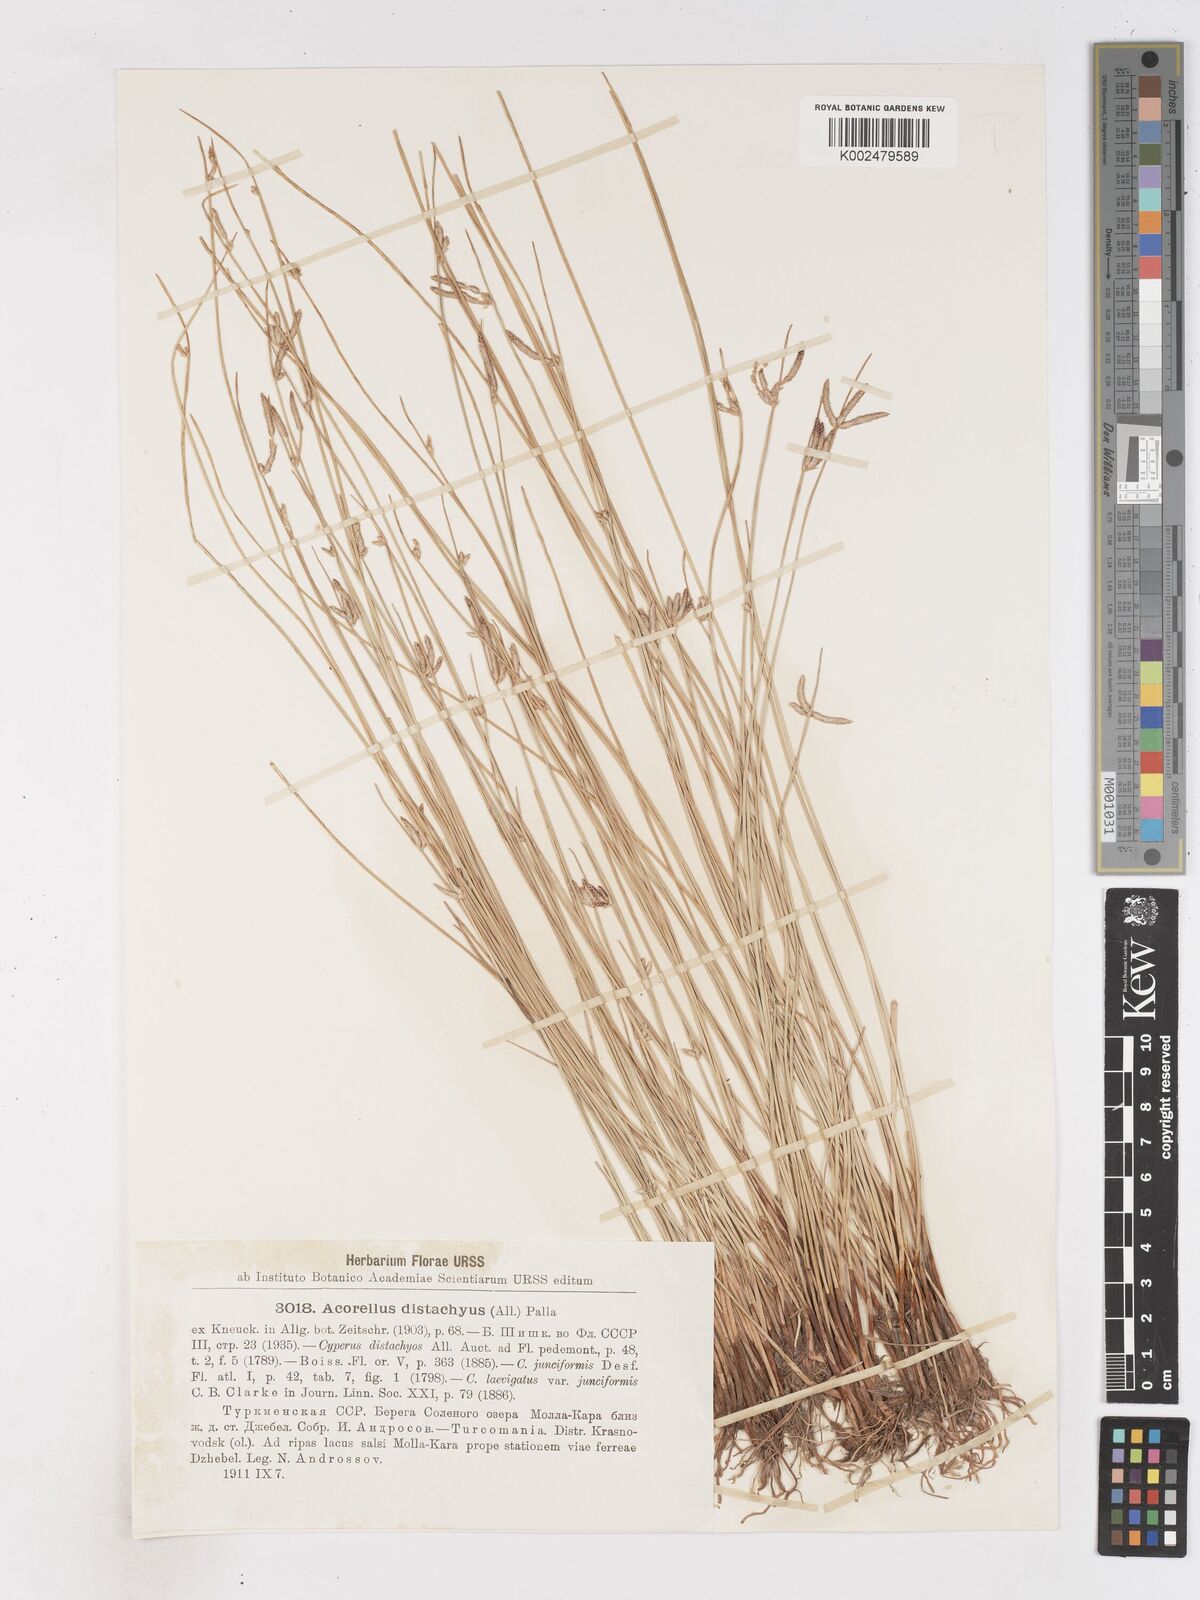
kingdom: Plantae
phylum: Tracheophyta
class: Liliopsida
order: Poales
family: Cyperaceae
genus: Cyperus
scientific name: Cyperus laevigatus
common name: Smooth flat sedge
